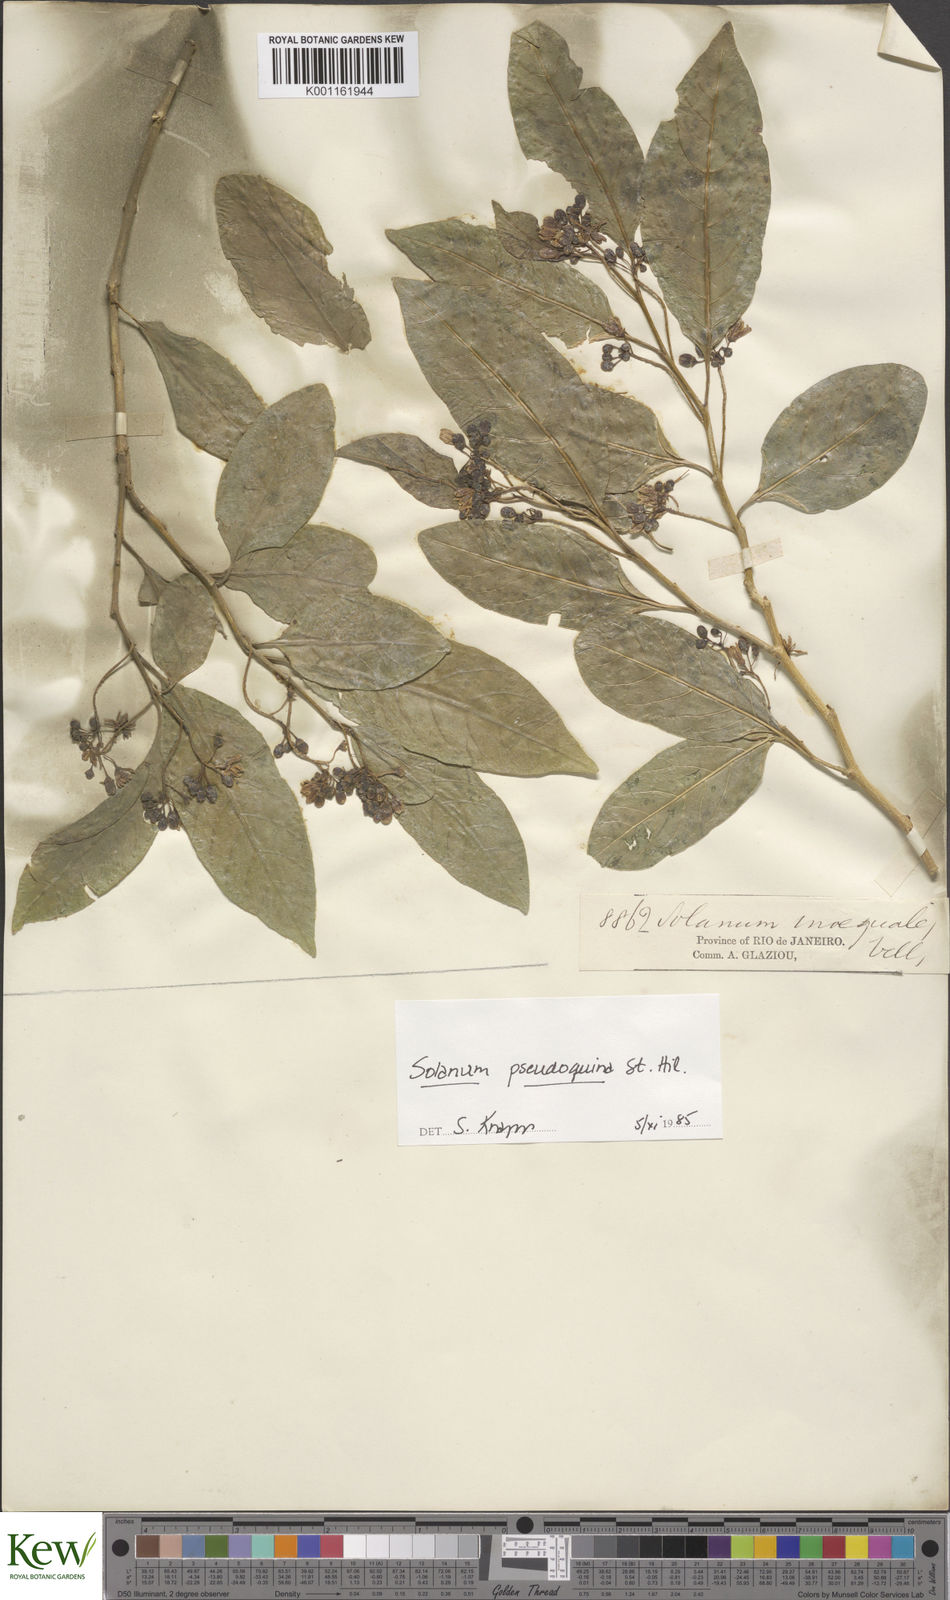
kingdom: Plantae
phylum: Tracheophyta
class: Magnoliopsida
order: Solanales
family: Solanaceae
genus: Solanum
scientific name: Solanum pseudoquina
